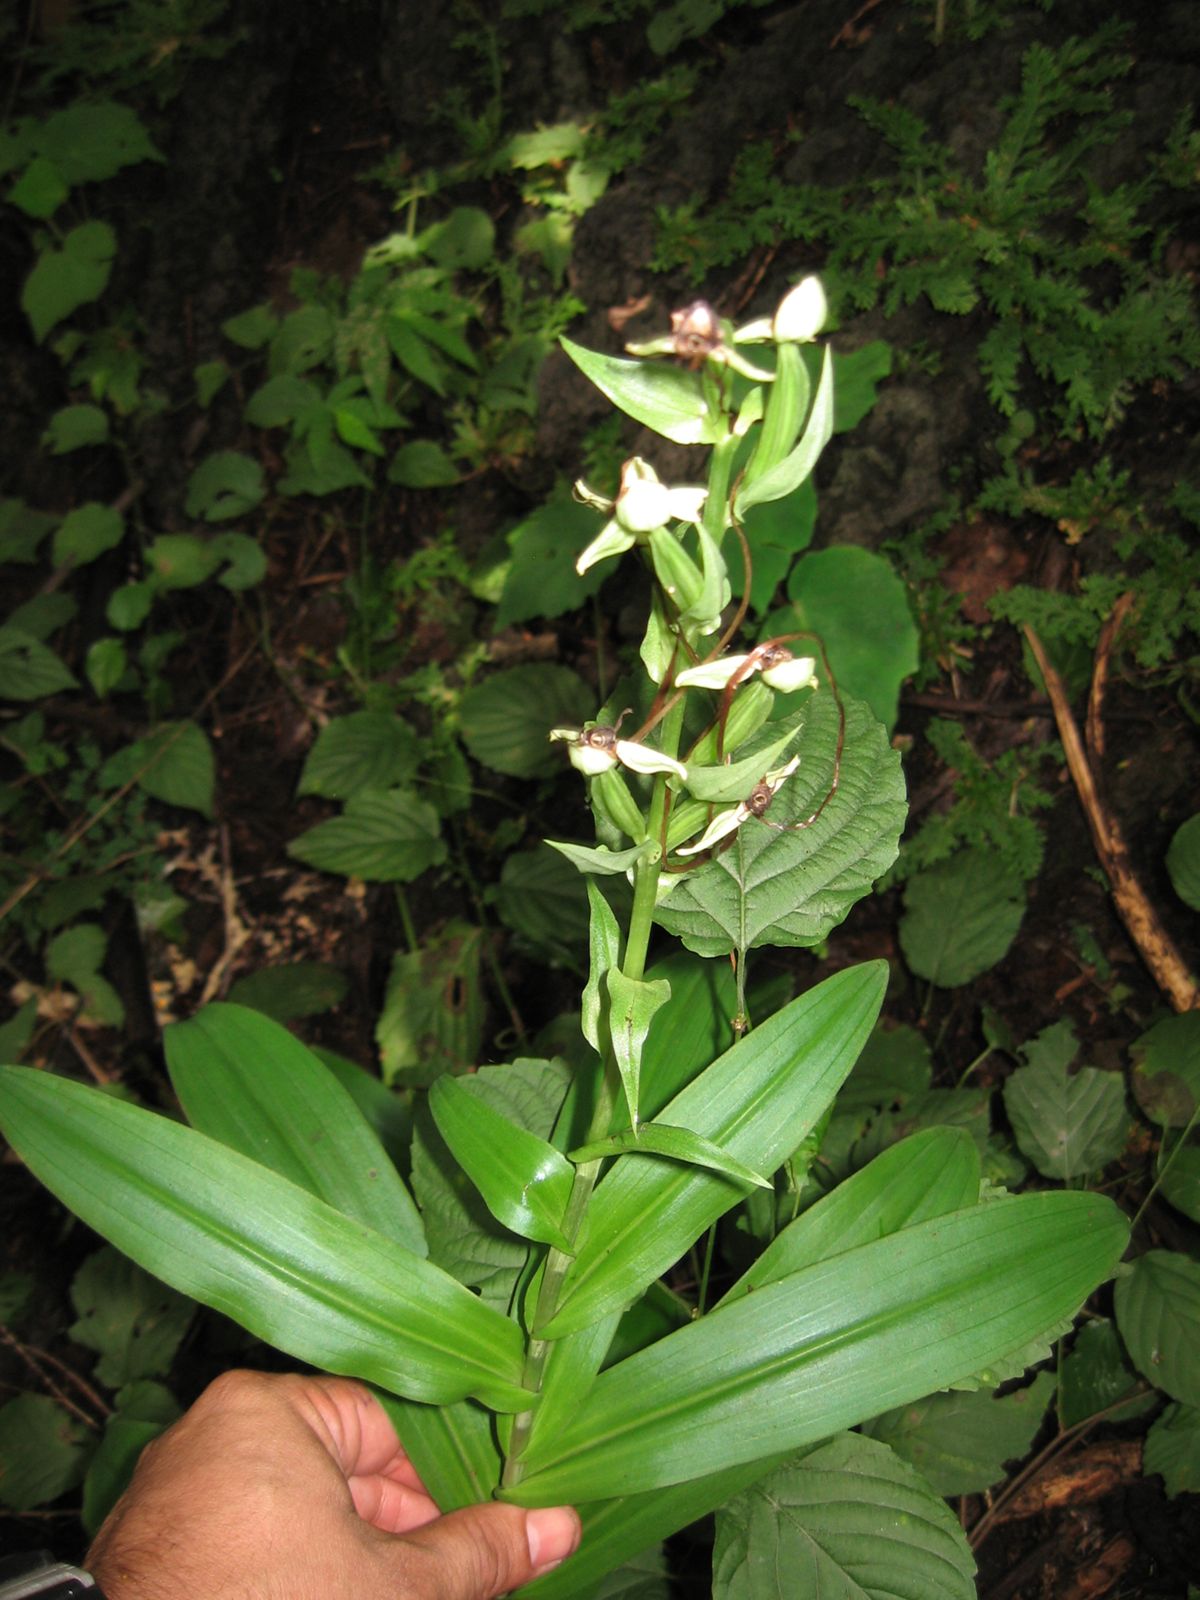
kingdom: Plantae
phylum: Tracheophyta
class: Liliopsida
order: Asparagales
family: Orchidaceae
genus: Habenaria
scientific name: Habenaria
